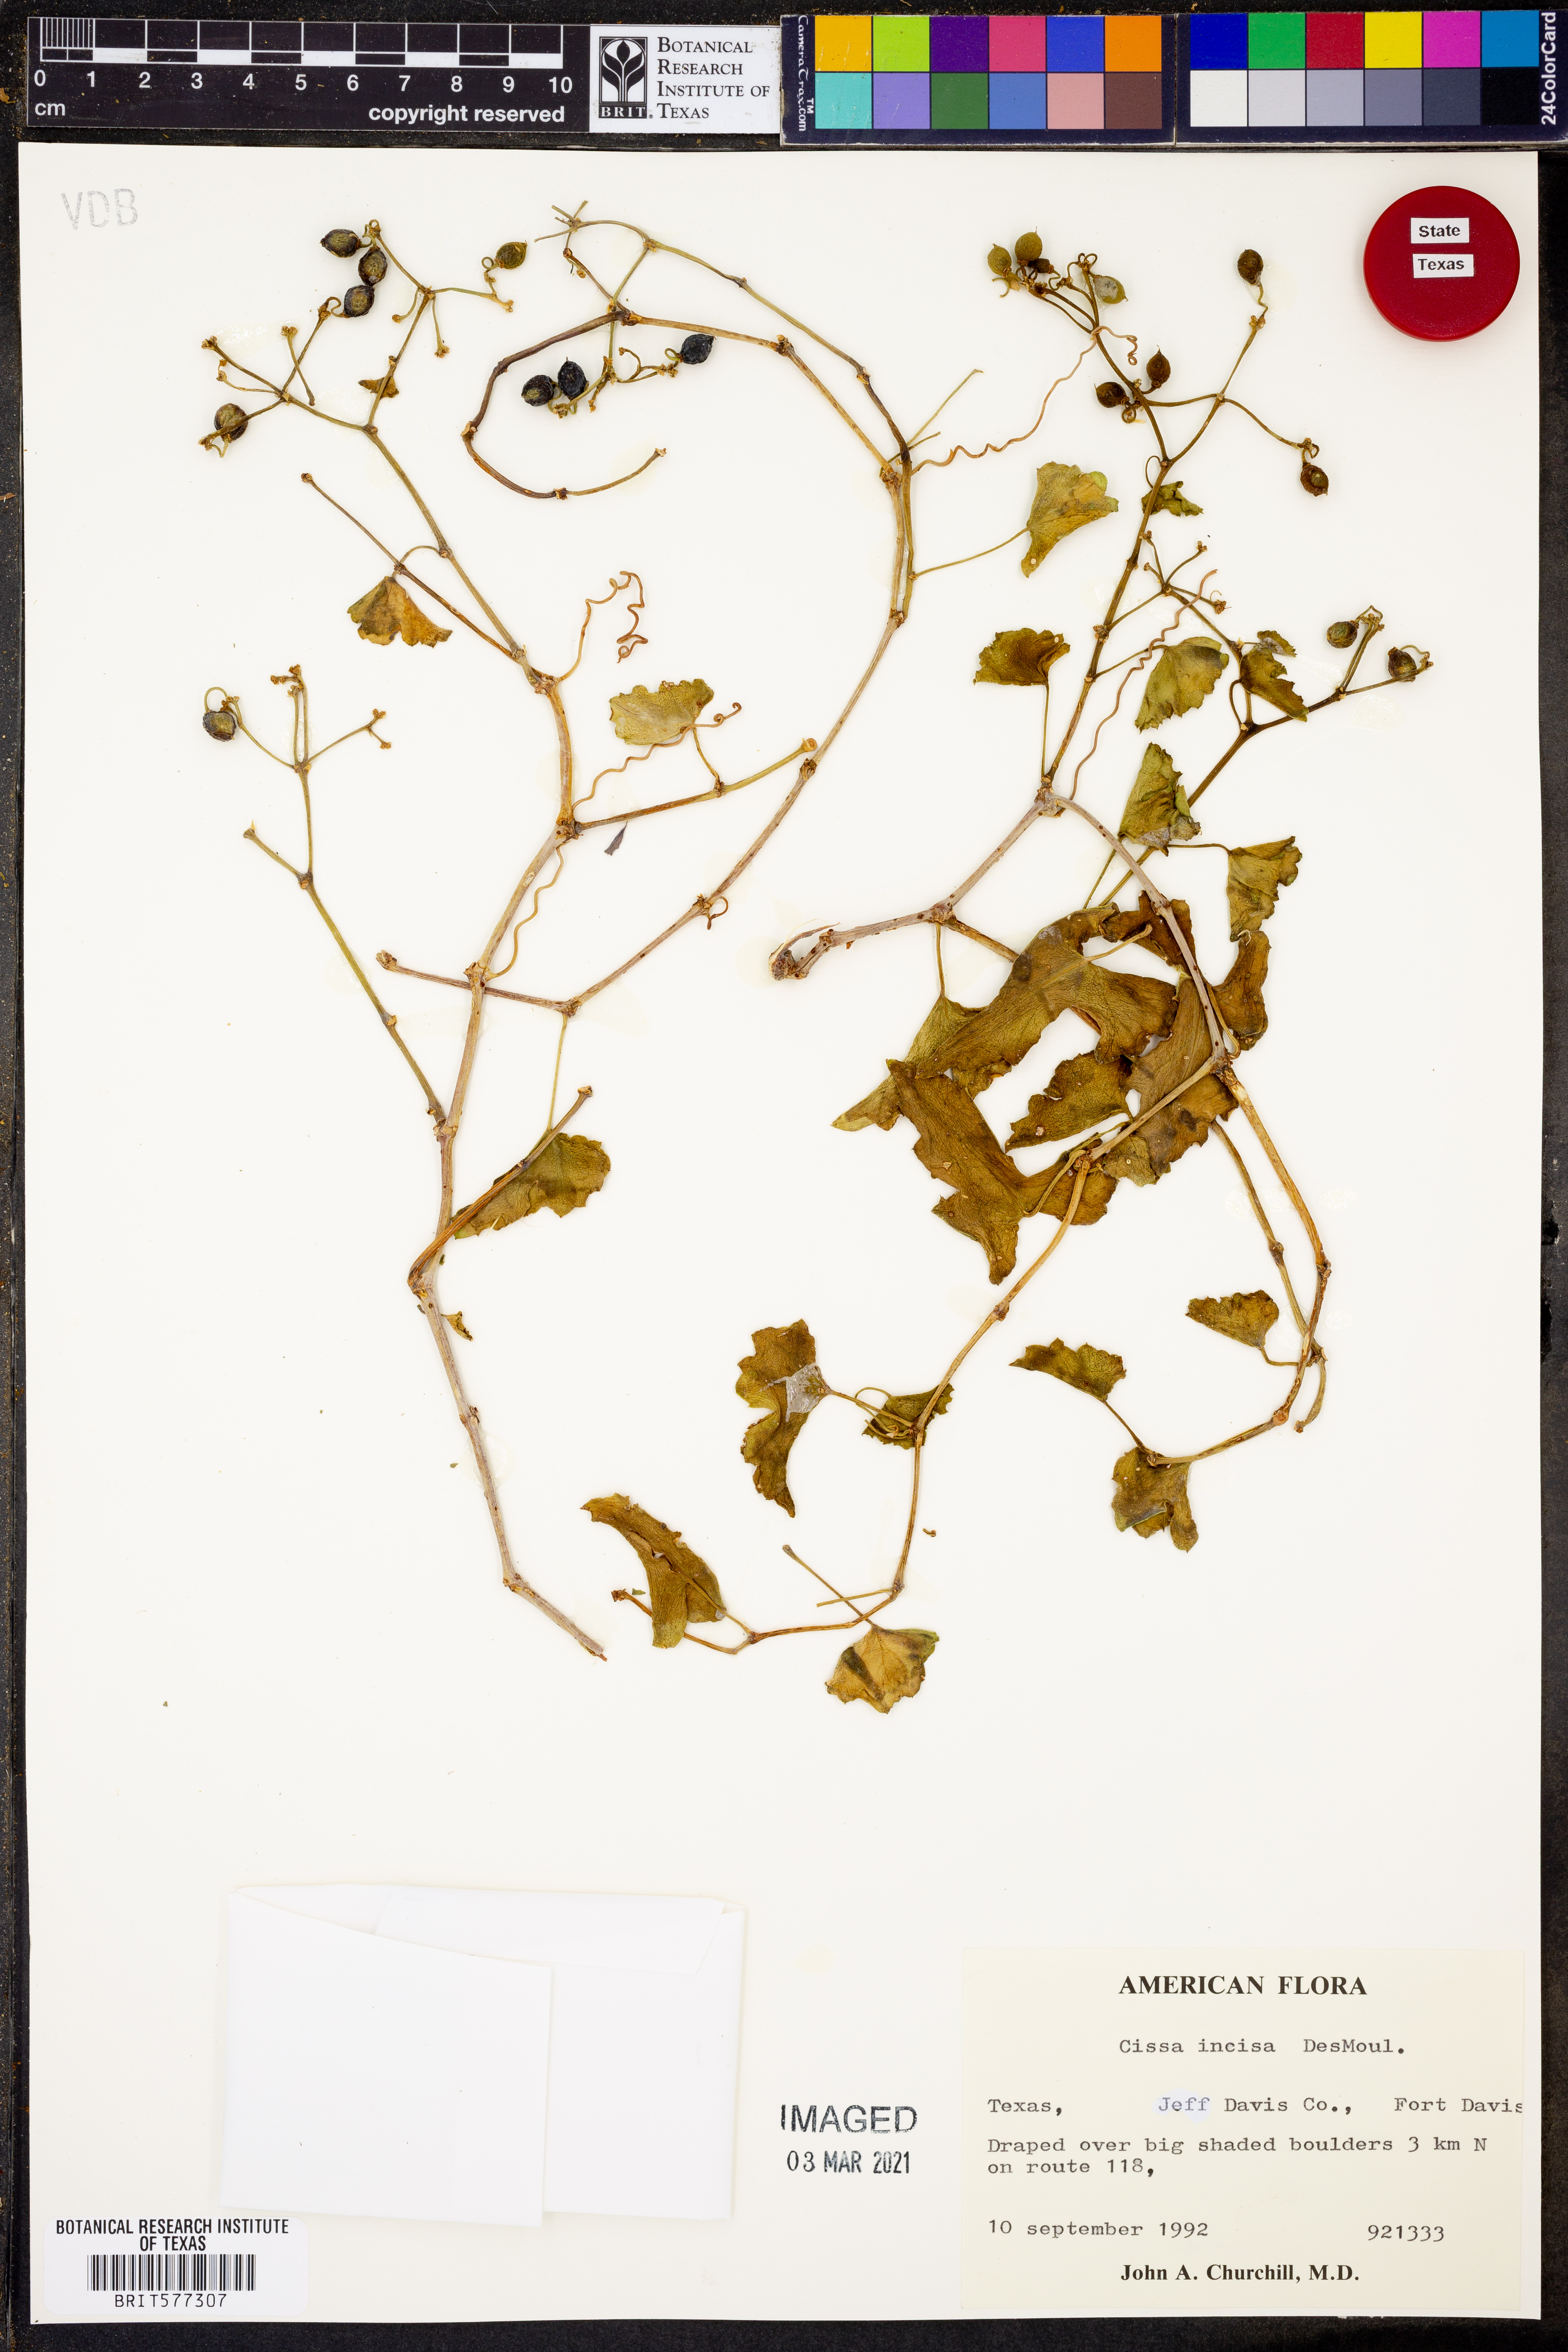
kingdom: Plantae
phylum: Tracheophyta
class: Magnoliopsida
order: Vitales
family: Vitaceae
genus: Cissus
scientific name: Cissus trifoliata
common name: Vine-sorrel
